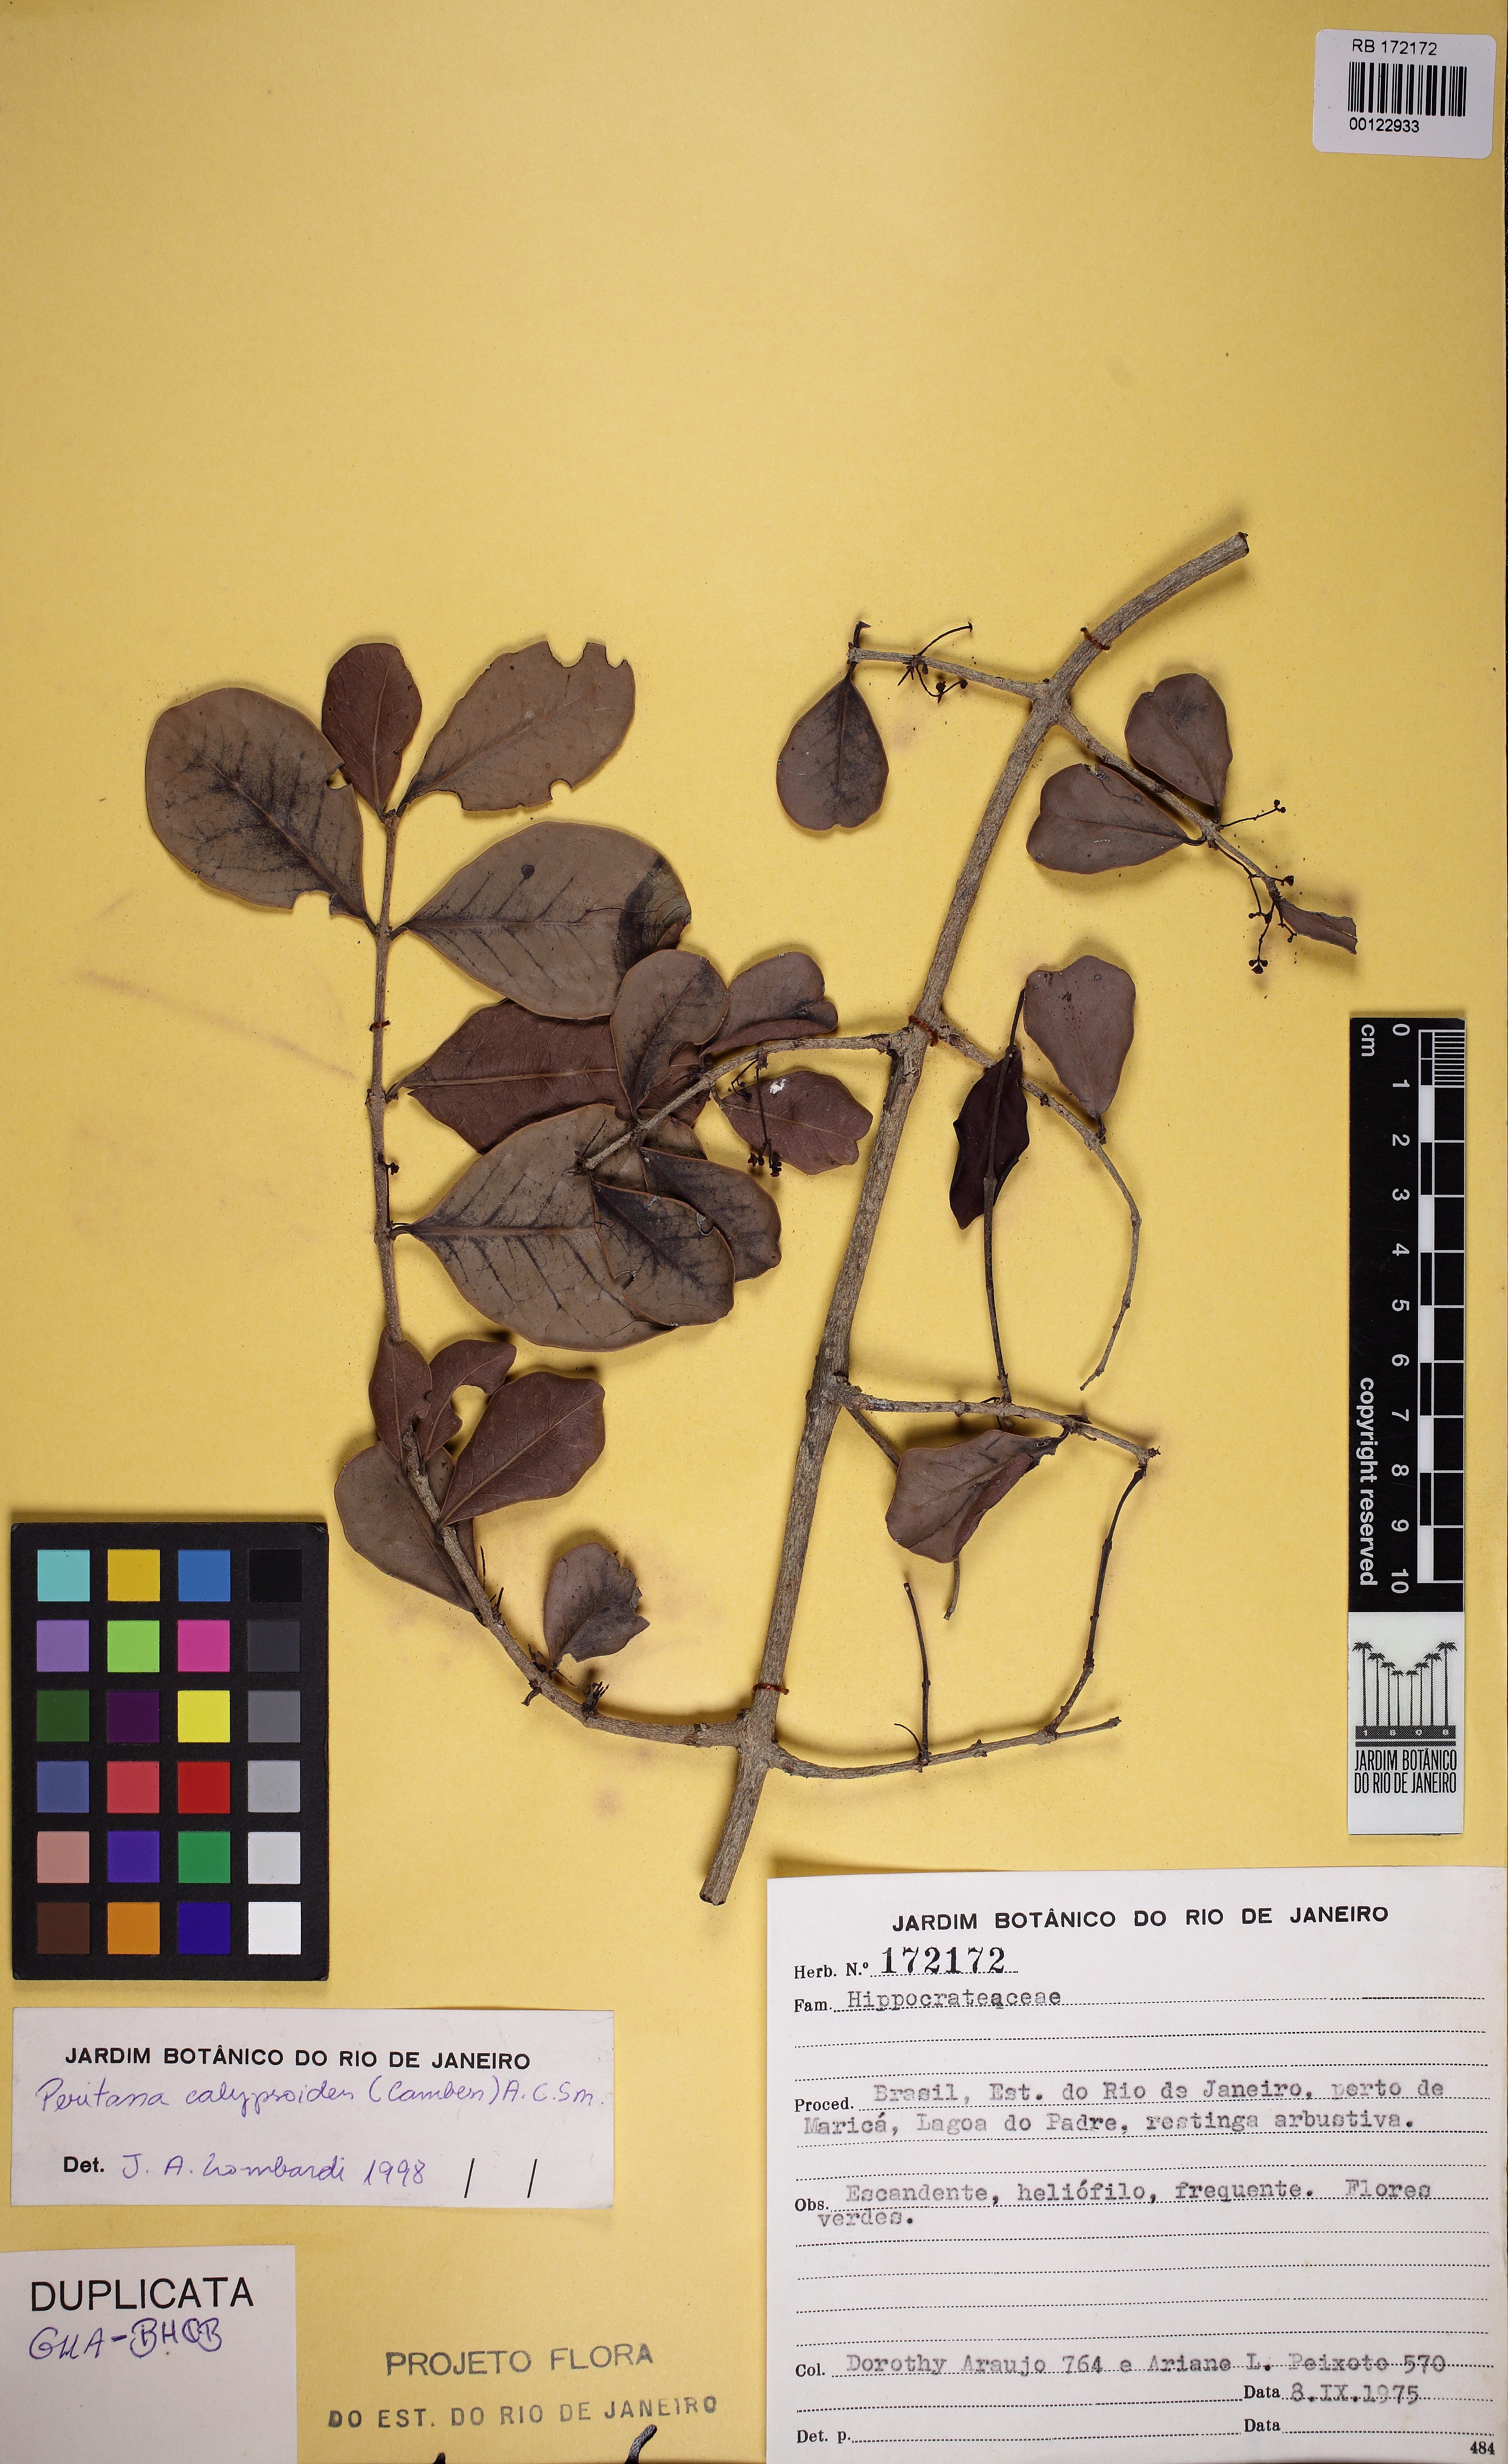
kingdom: Plantae
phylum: Tracheophyta
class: Magnoliopsida
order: Celastrales
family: Celastraceae
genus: Peritassa
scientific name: Peritassa calypsoides
